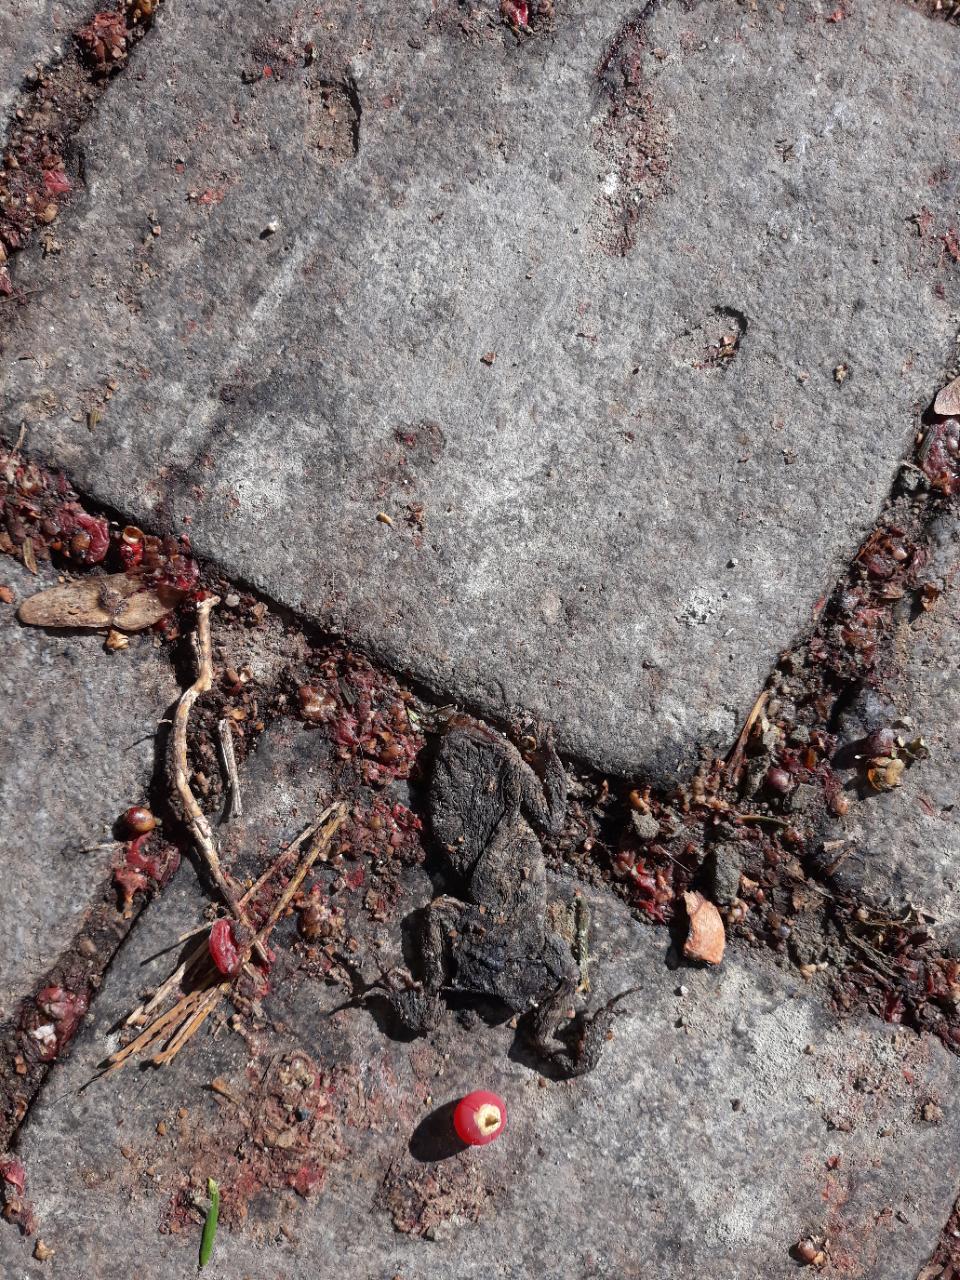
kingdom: Animalia
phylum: Chordata
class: Amphibia
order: Anura
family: Bufonidae
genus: Bufo
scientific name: Bufo bufo
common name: Common toad
